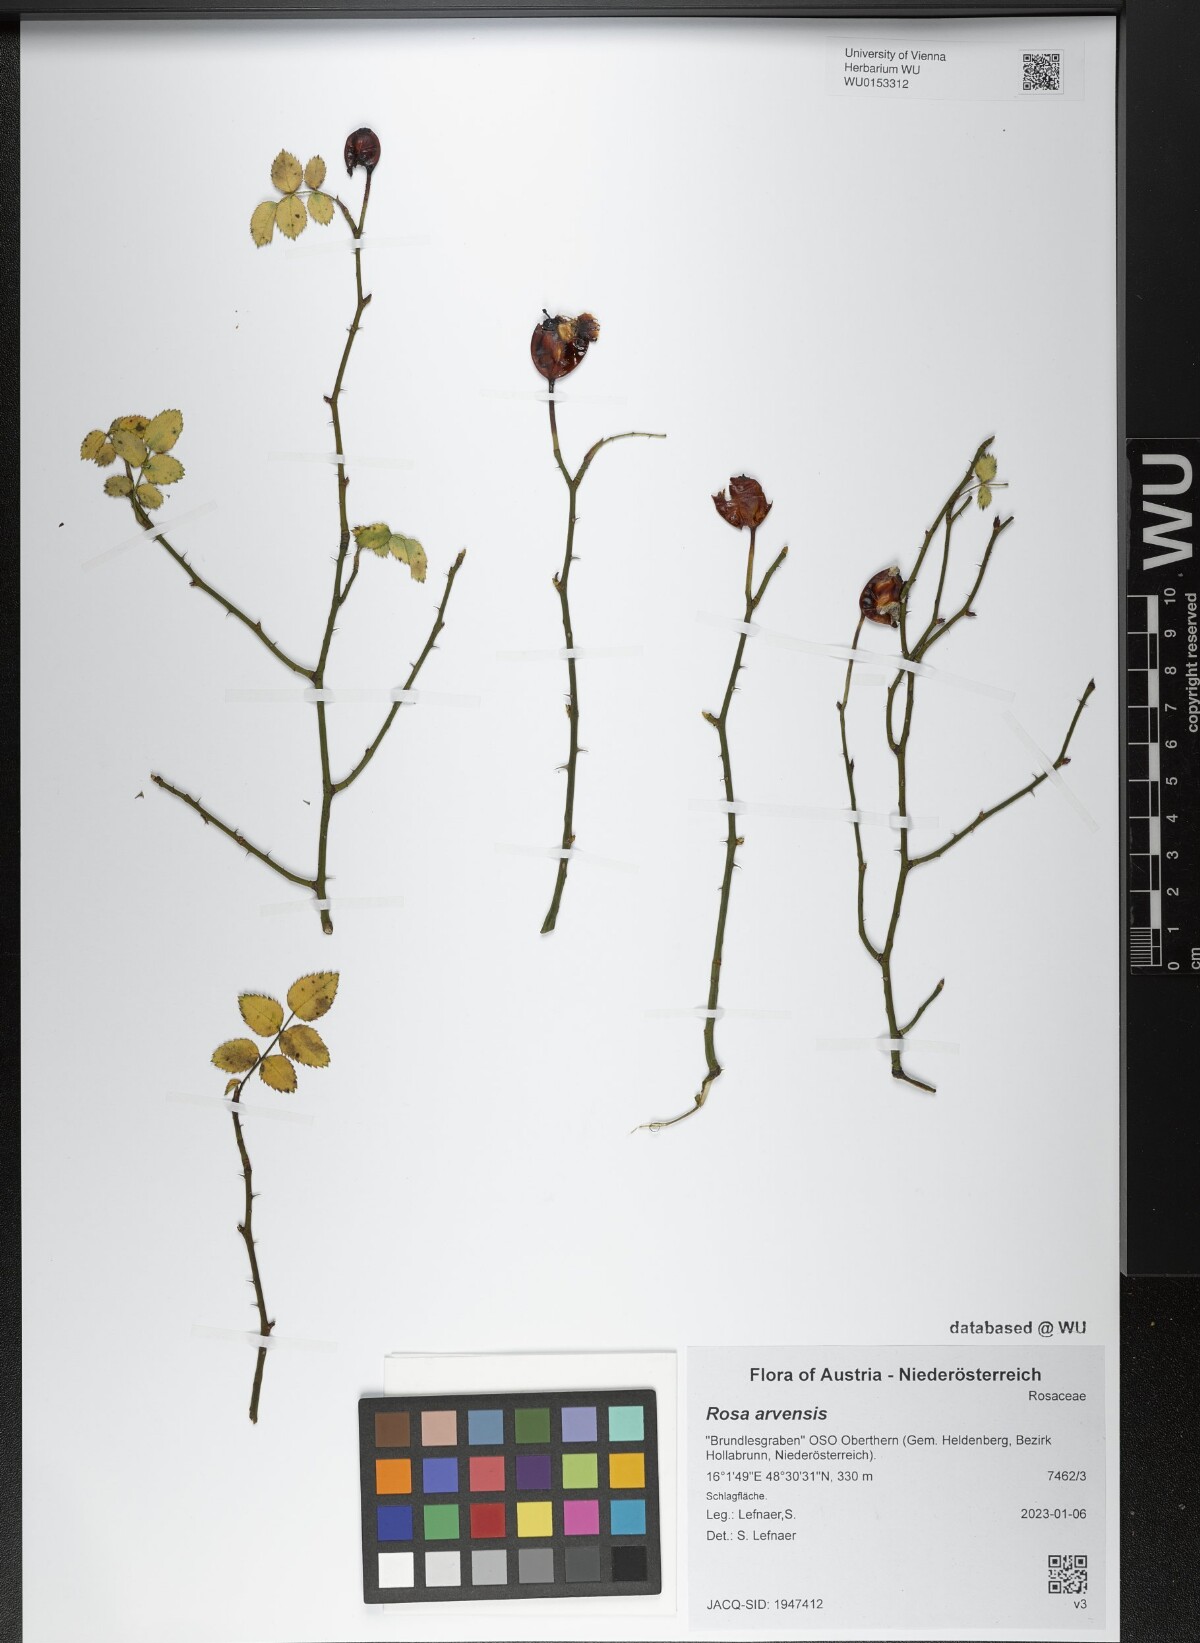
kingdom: Plantae
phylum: Tracheophyta
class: Magnoliopsida
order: Rosales
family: Rosaceae
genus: Rosa
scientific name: Rosa arvensis
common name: Field rose
